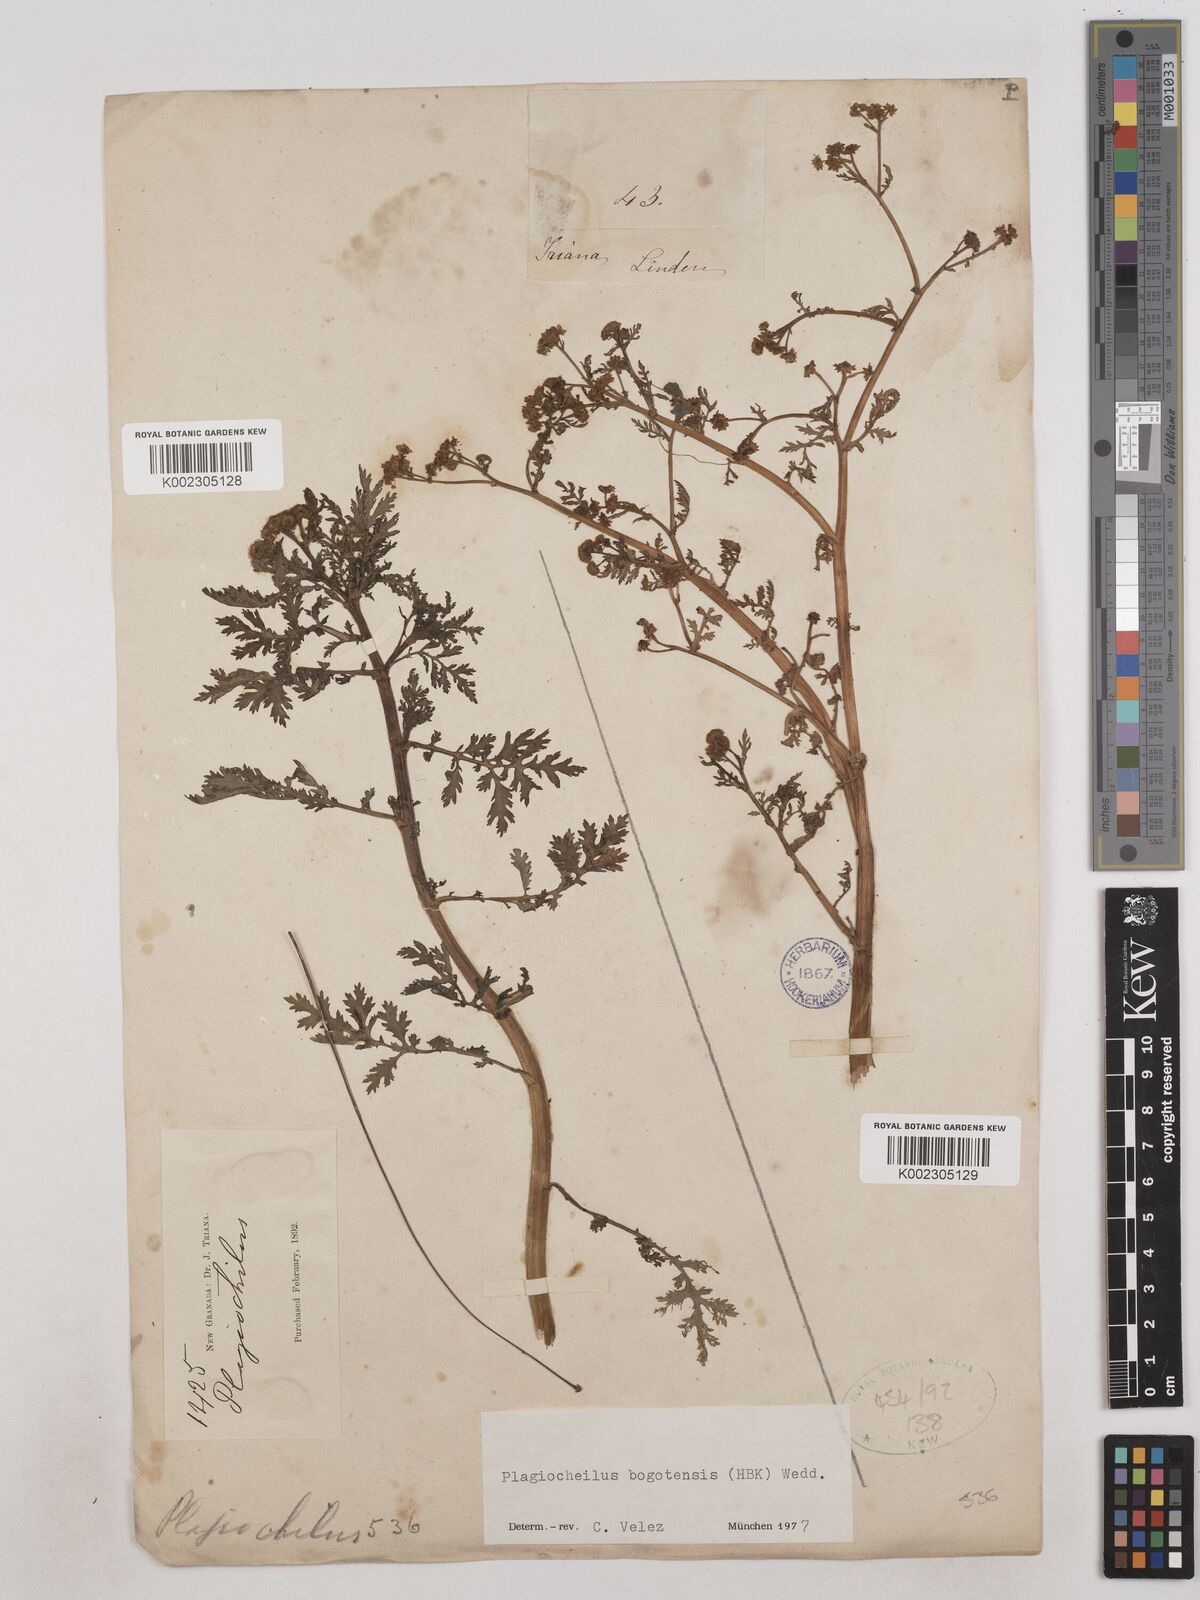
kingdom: Plantae
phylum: Tracheophyta
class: Magnoliopsida
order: Asterales
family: Asteraceae
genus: Plagiocheilus
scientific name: Plagiocheilus bogotensis
